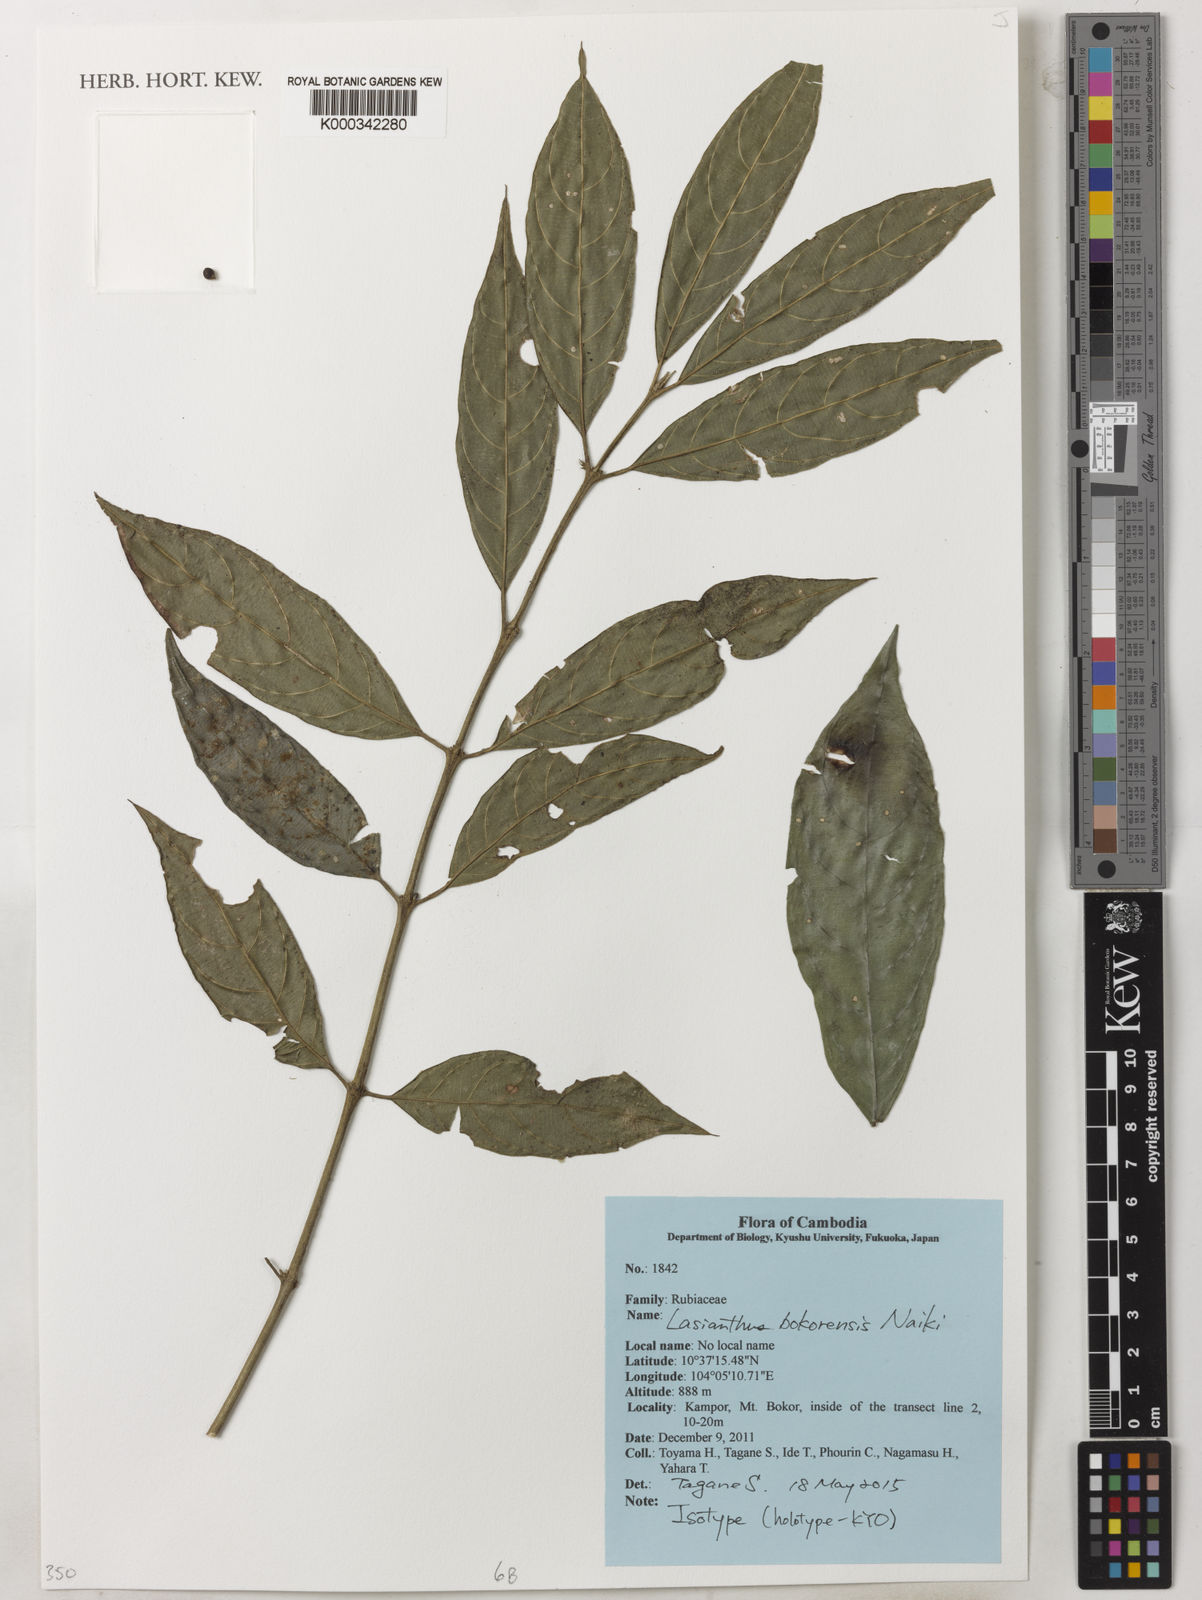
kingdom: Plantae
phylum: Tracheophyta
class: Magnoliopsida
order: Gentianales
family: Rubiaceae
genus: Lasianthus
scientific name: Lasianthus bokorensis
